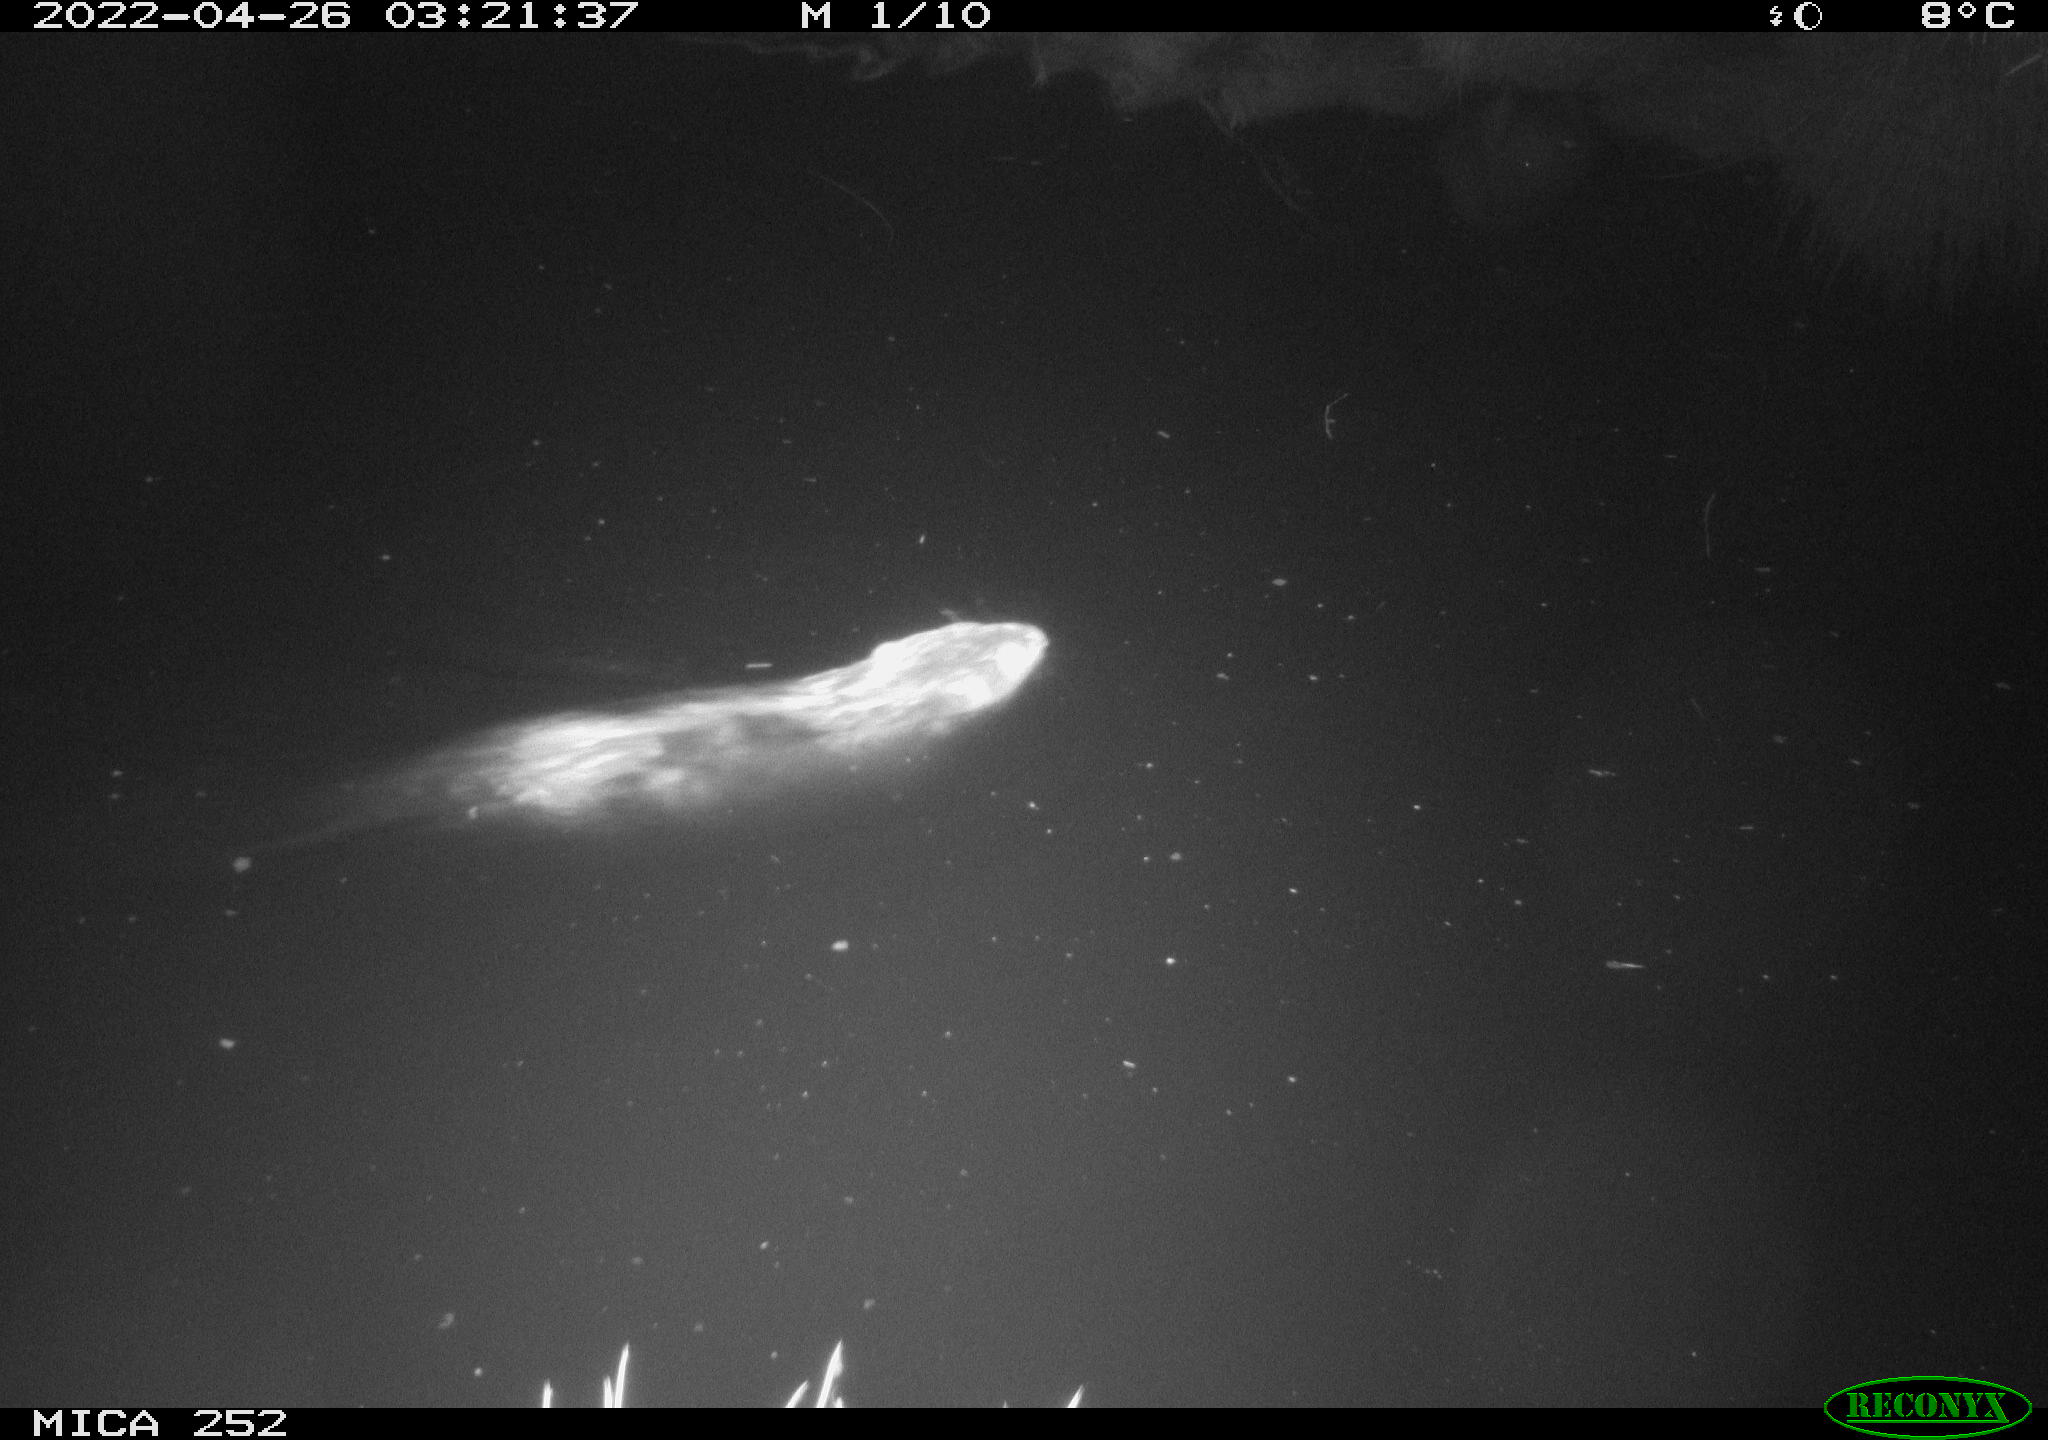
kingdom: Animalia
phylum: Chordata
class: Mammalia
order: Rodentia
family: Castoridae
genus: Castor
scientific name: Castor fiber
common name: Eurasian beaver
